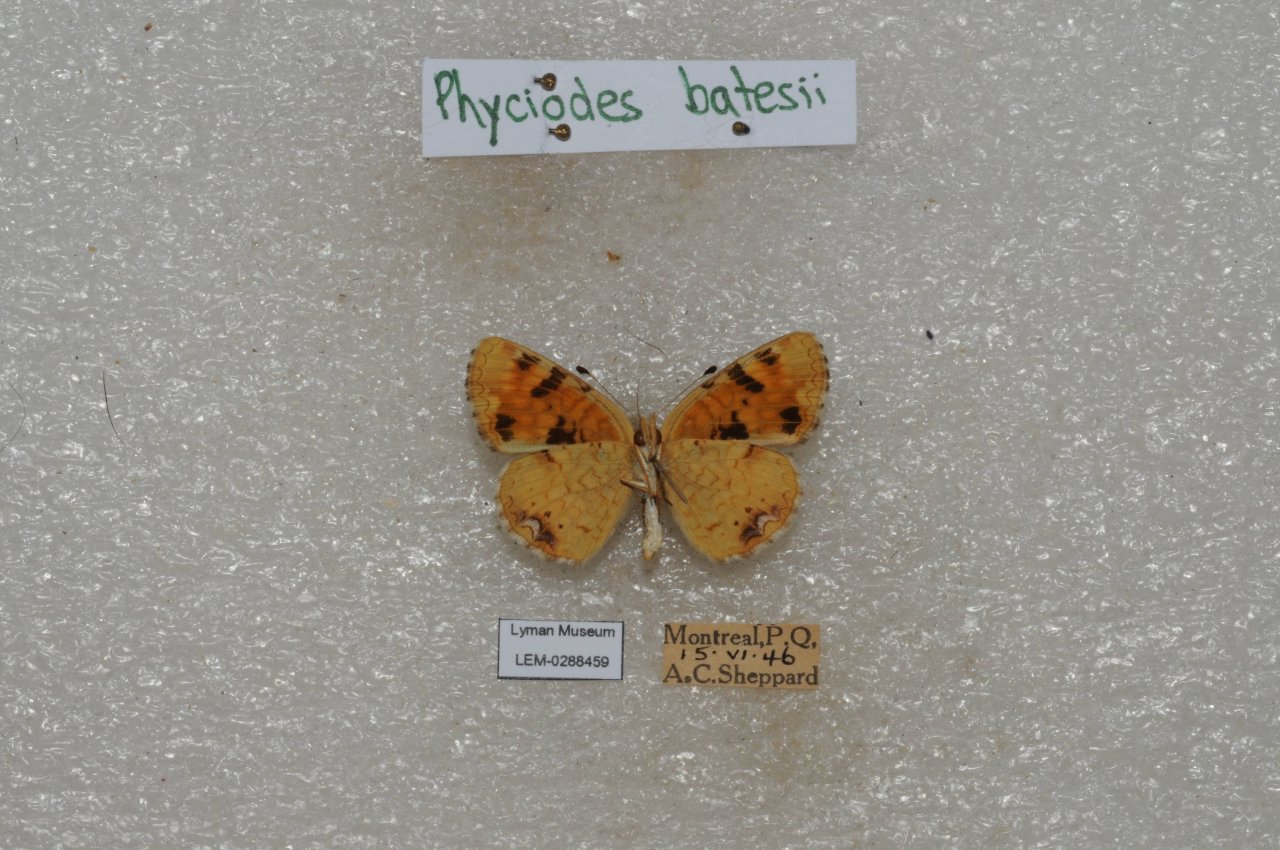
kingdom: Animalia
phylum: Arthropoda
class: Insecta
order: Lepidoptera
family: Nymphalidae
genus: Phyciodes
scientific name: Phyciodes batesii
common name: Tawny Crescent
